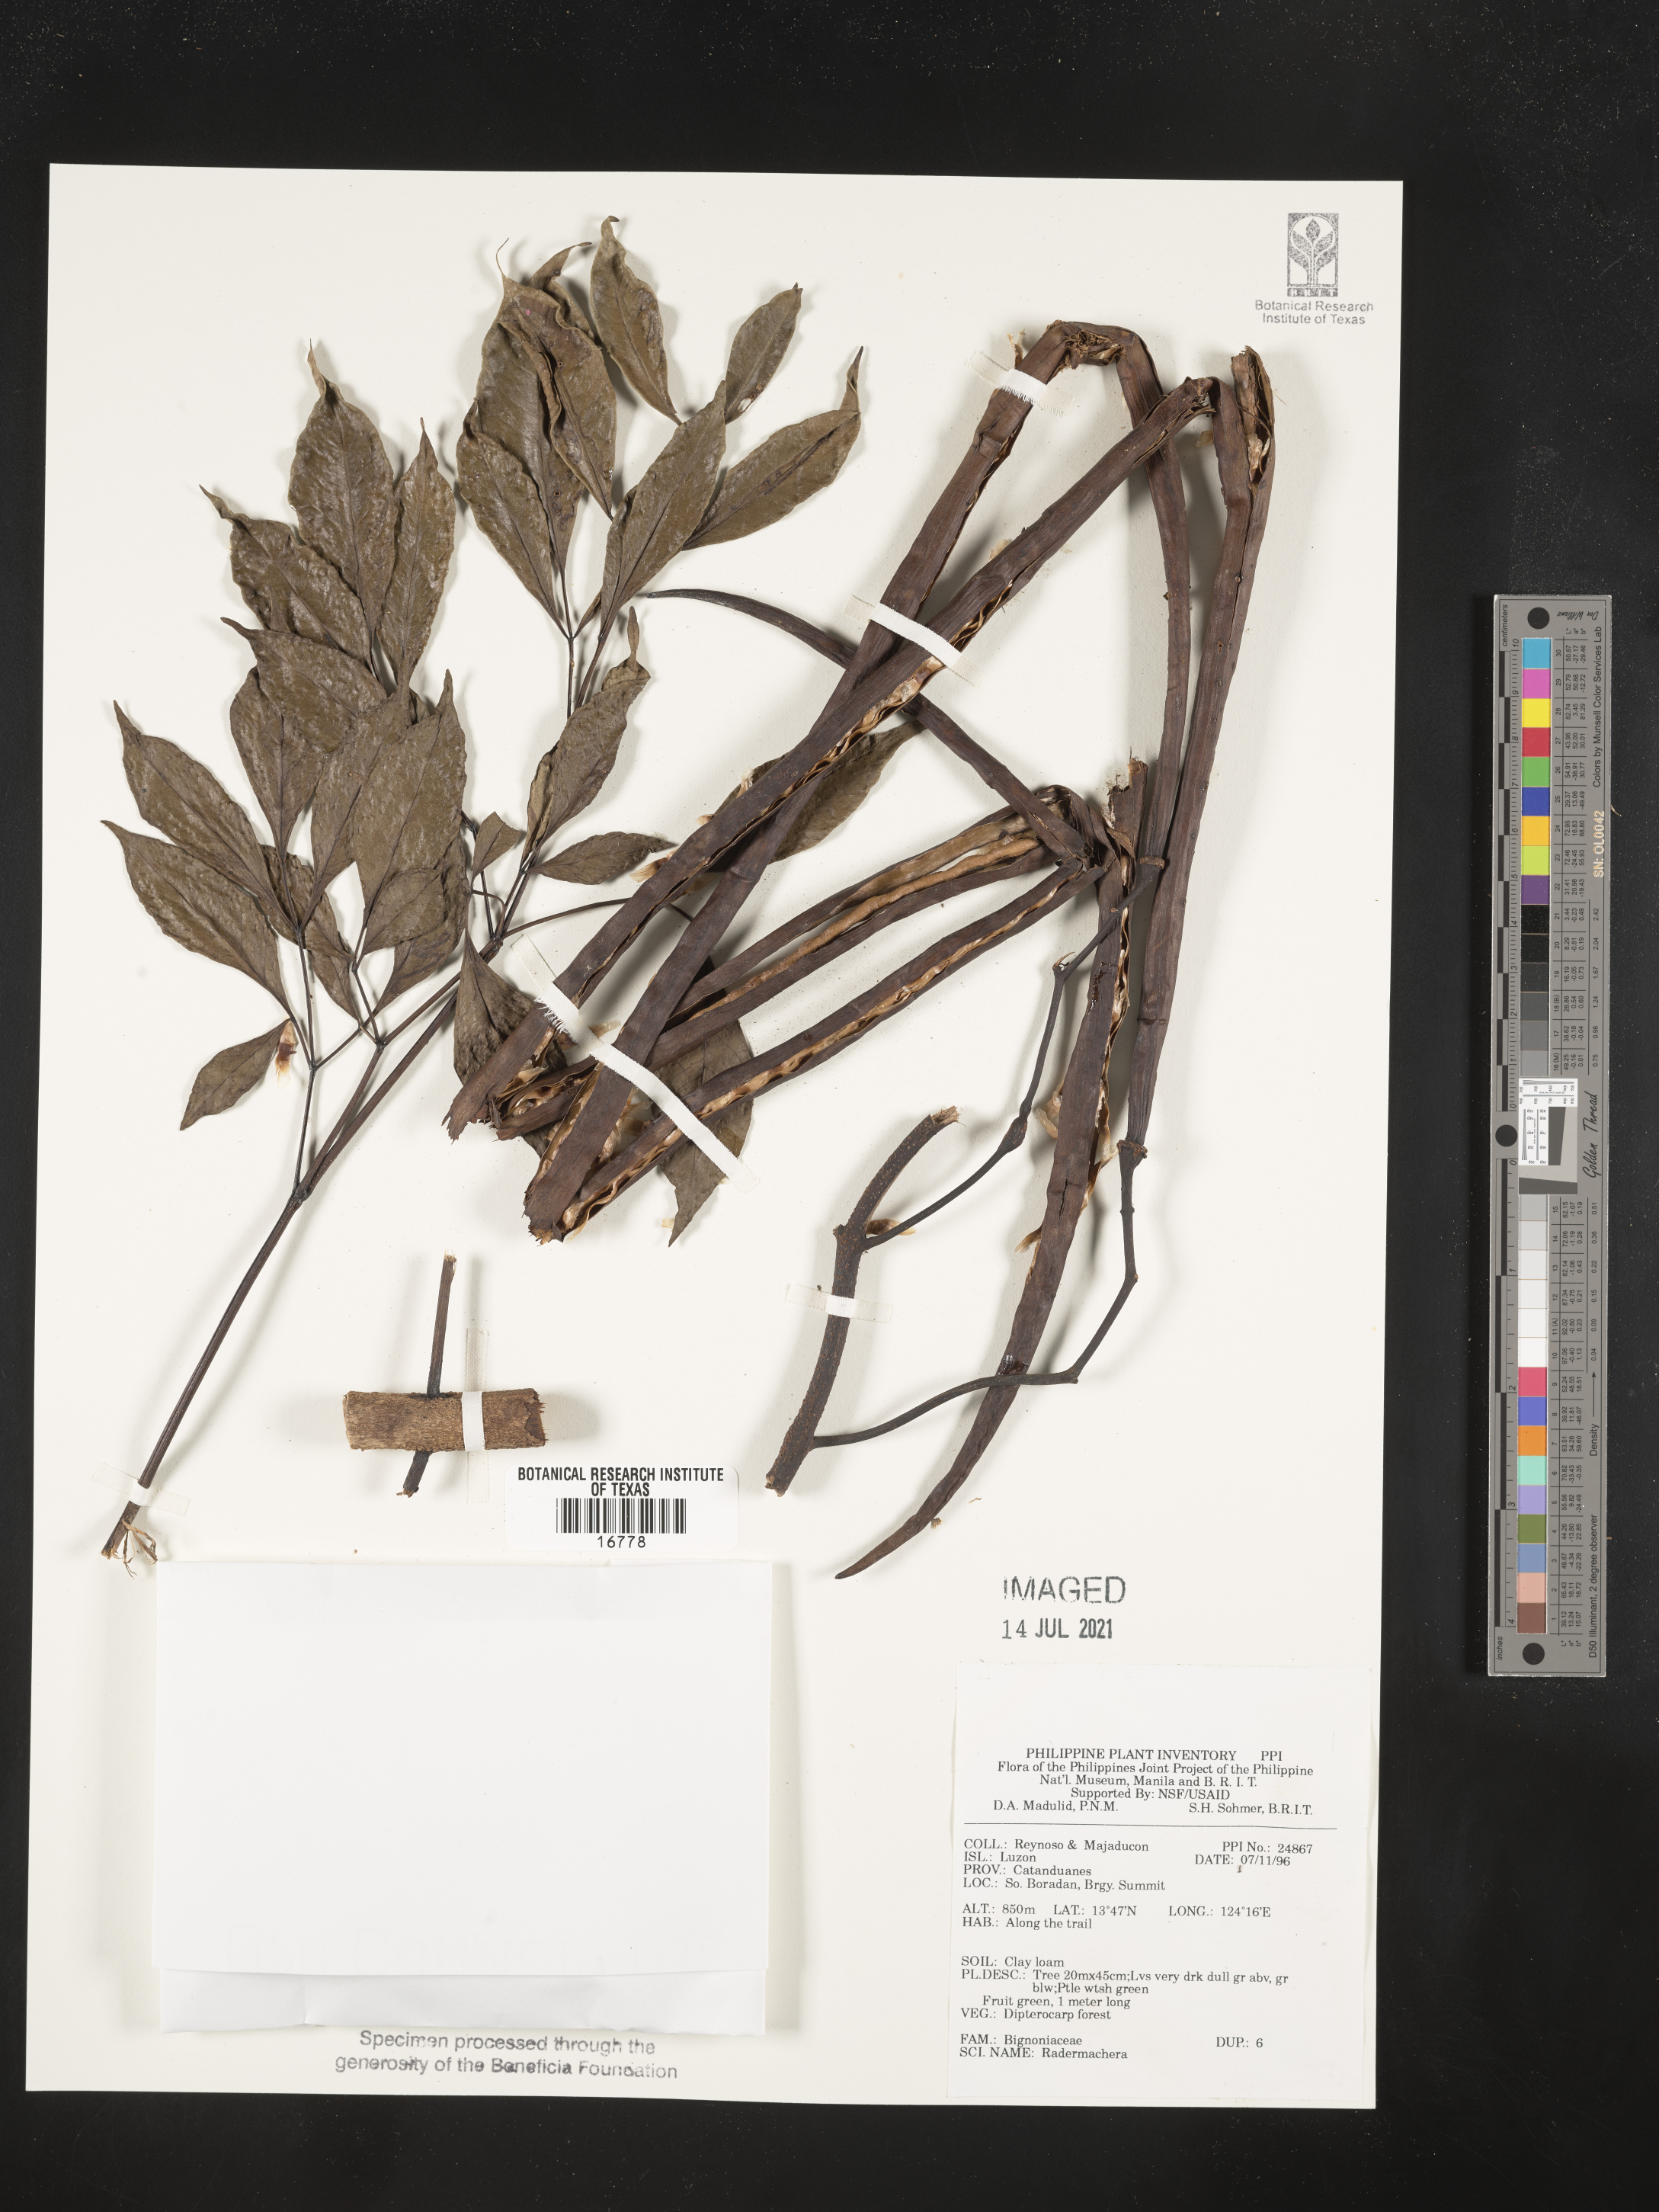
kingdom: Plantae
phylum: Tracheophyta
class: Magnoliopsida
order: Lamiales
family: Bignoniaceae
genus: Radermachera
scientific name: Radermachera
